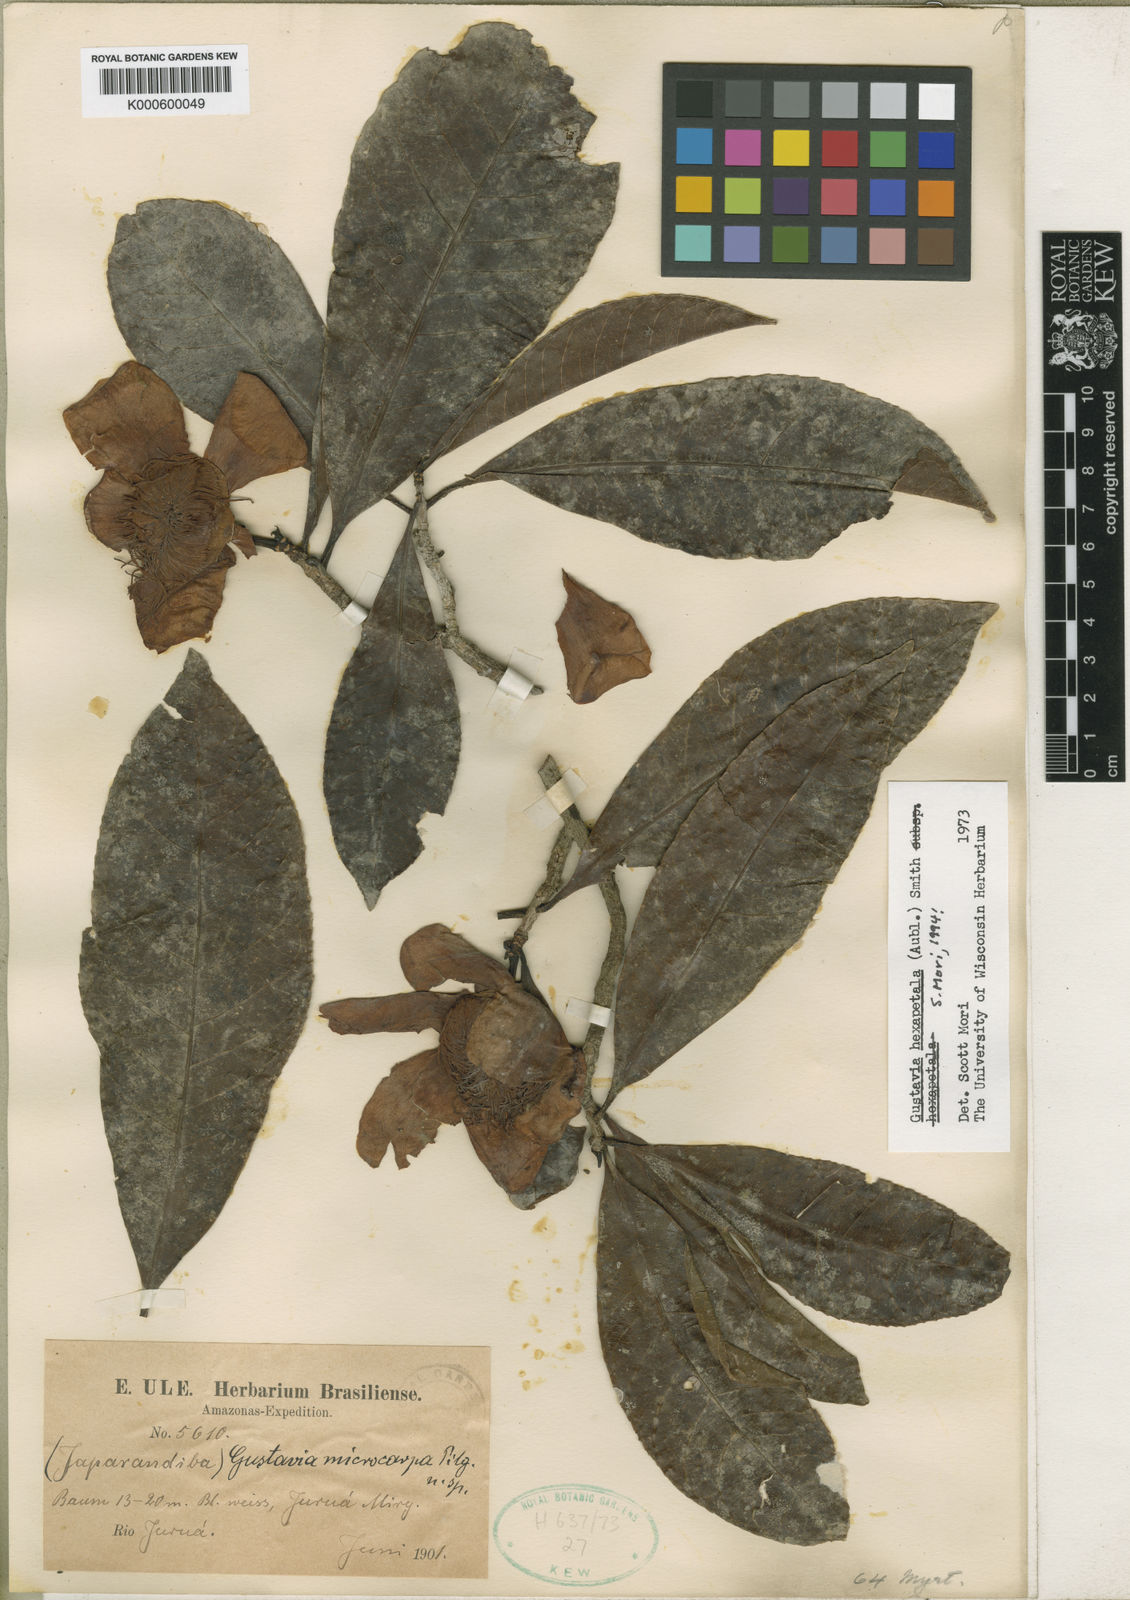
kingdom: Plantae
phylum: Tracheophyta
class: Magnoliopsida
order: Ericales
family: Lecythidaceae
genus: Gustavia
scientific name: Gustavia hexapetala
